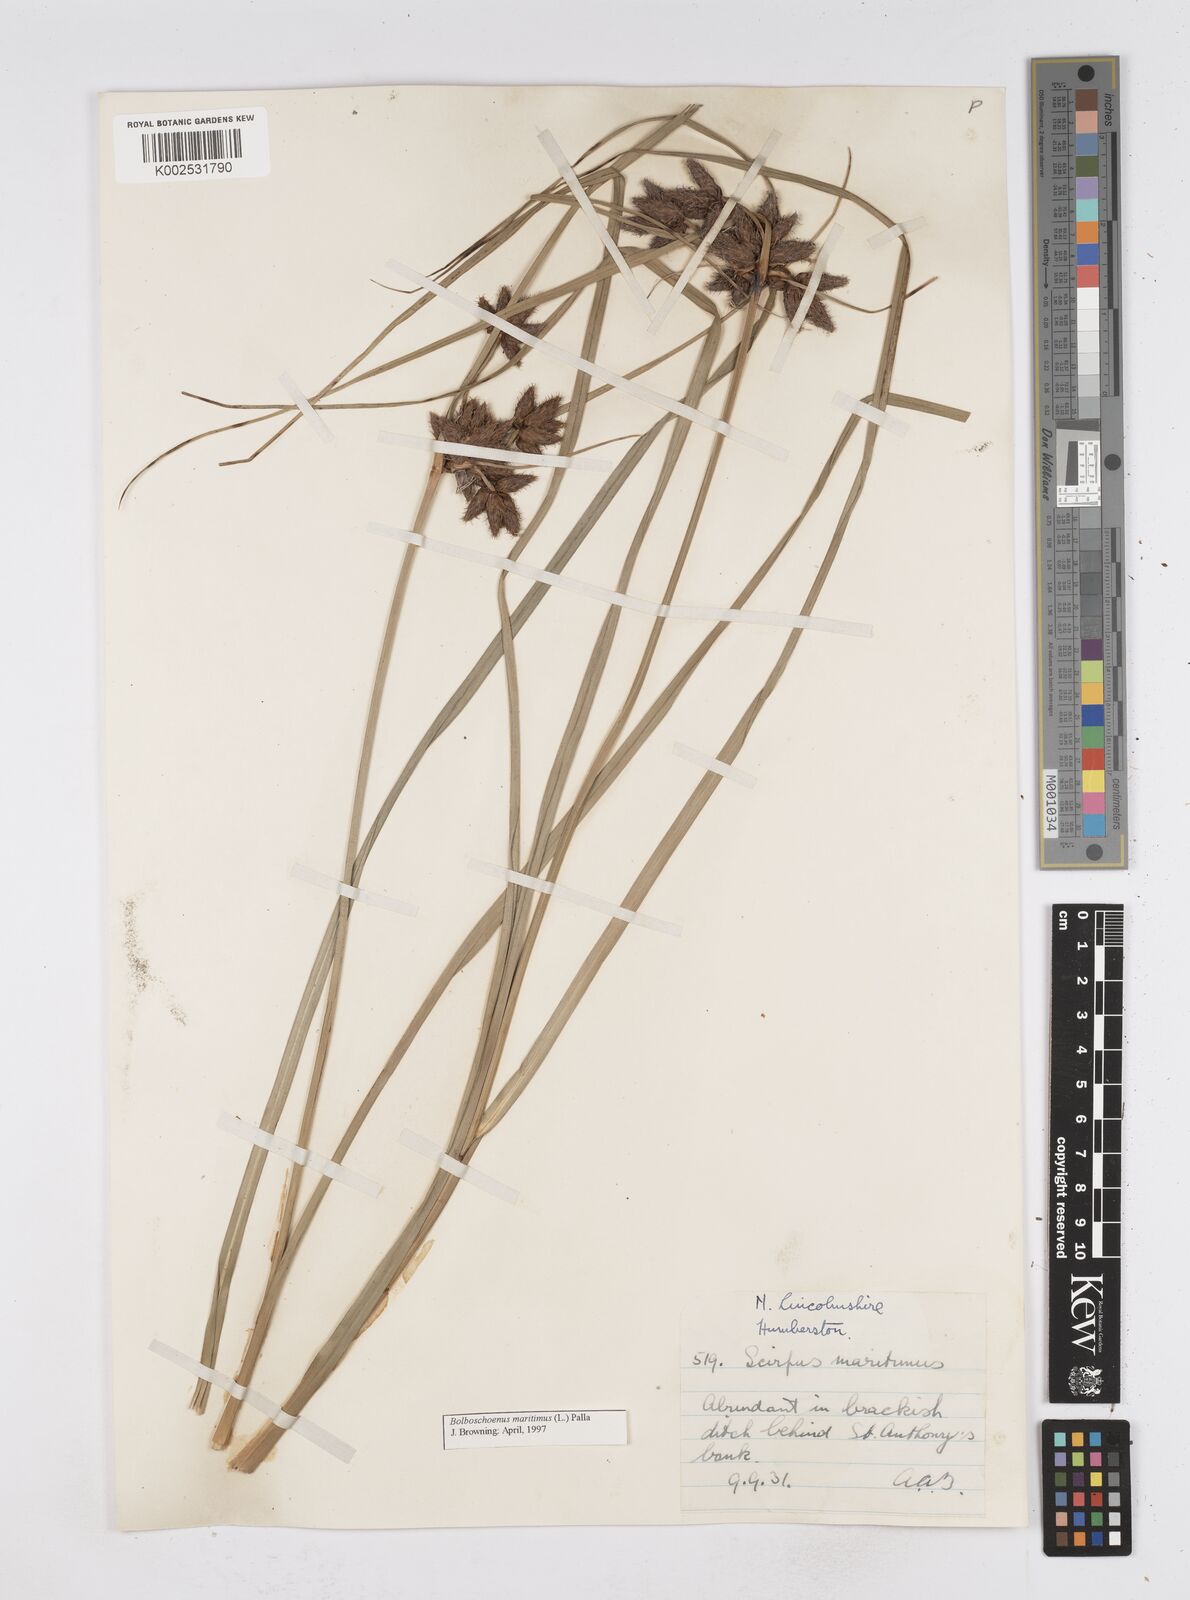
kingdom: Plantae
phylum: Tracheophyta
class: Liliopsida
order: Poales
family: Cyperaceae
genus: Bolboschoenus
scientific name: Bolboschoenus maritimus
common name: Sea club-rush
